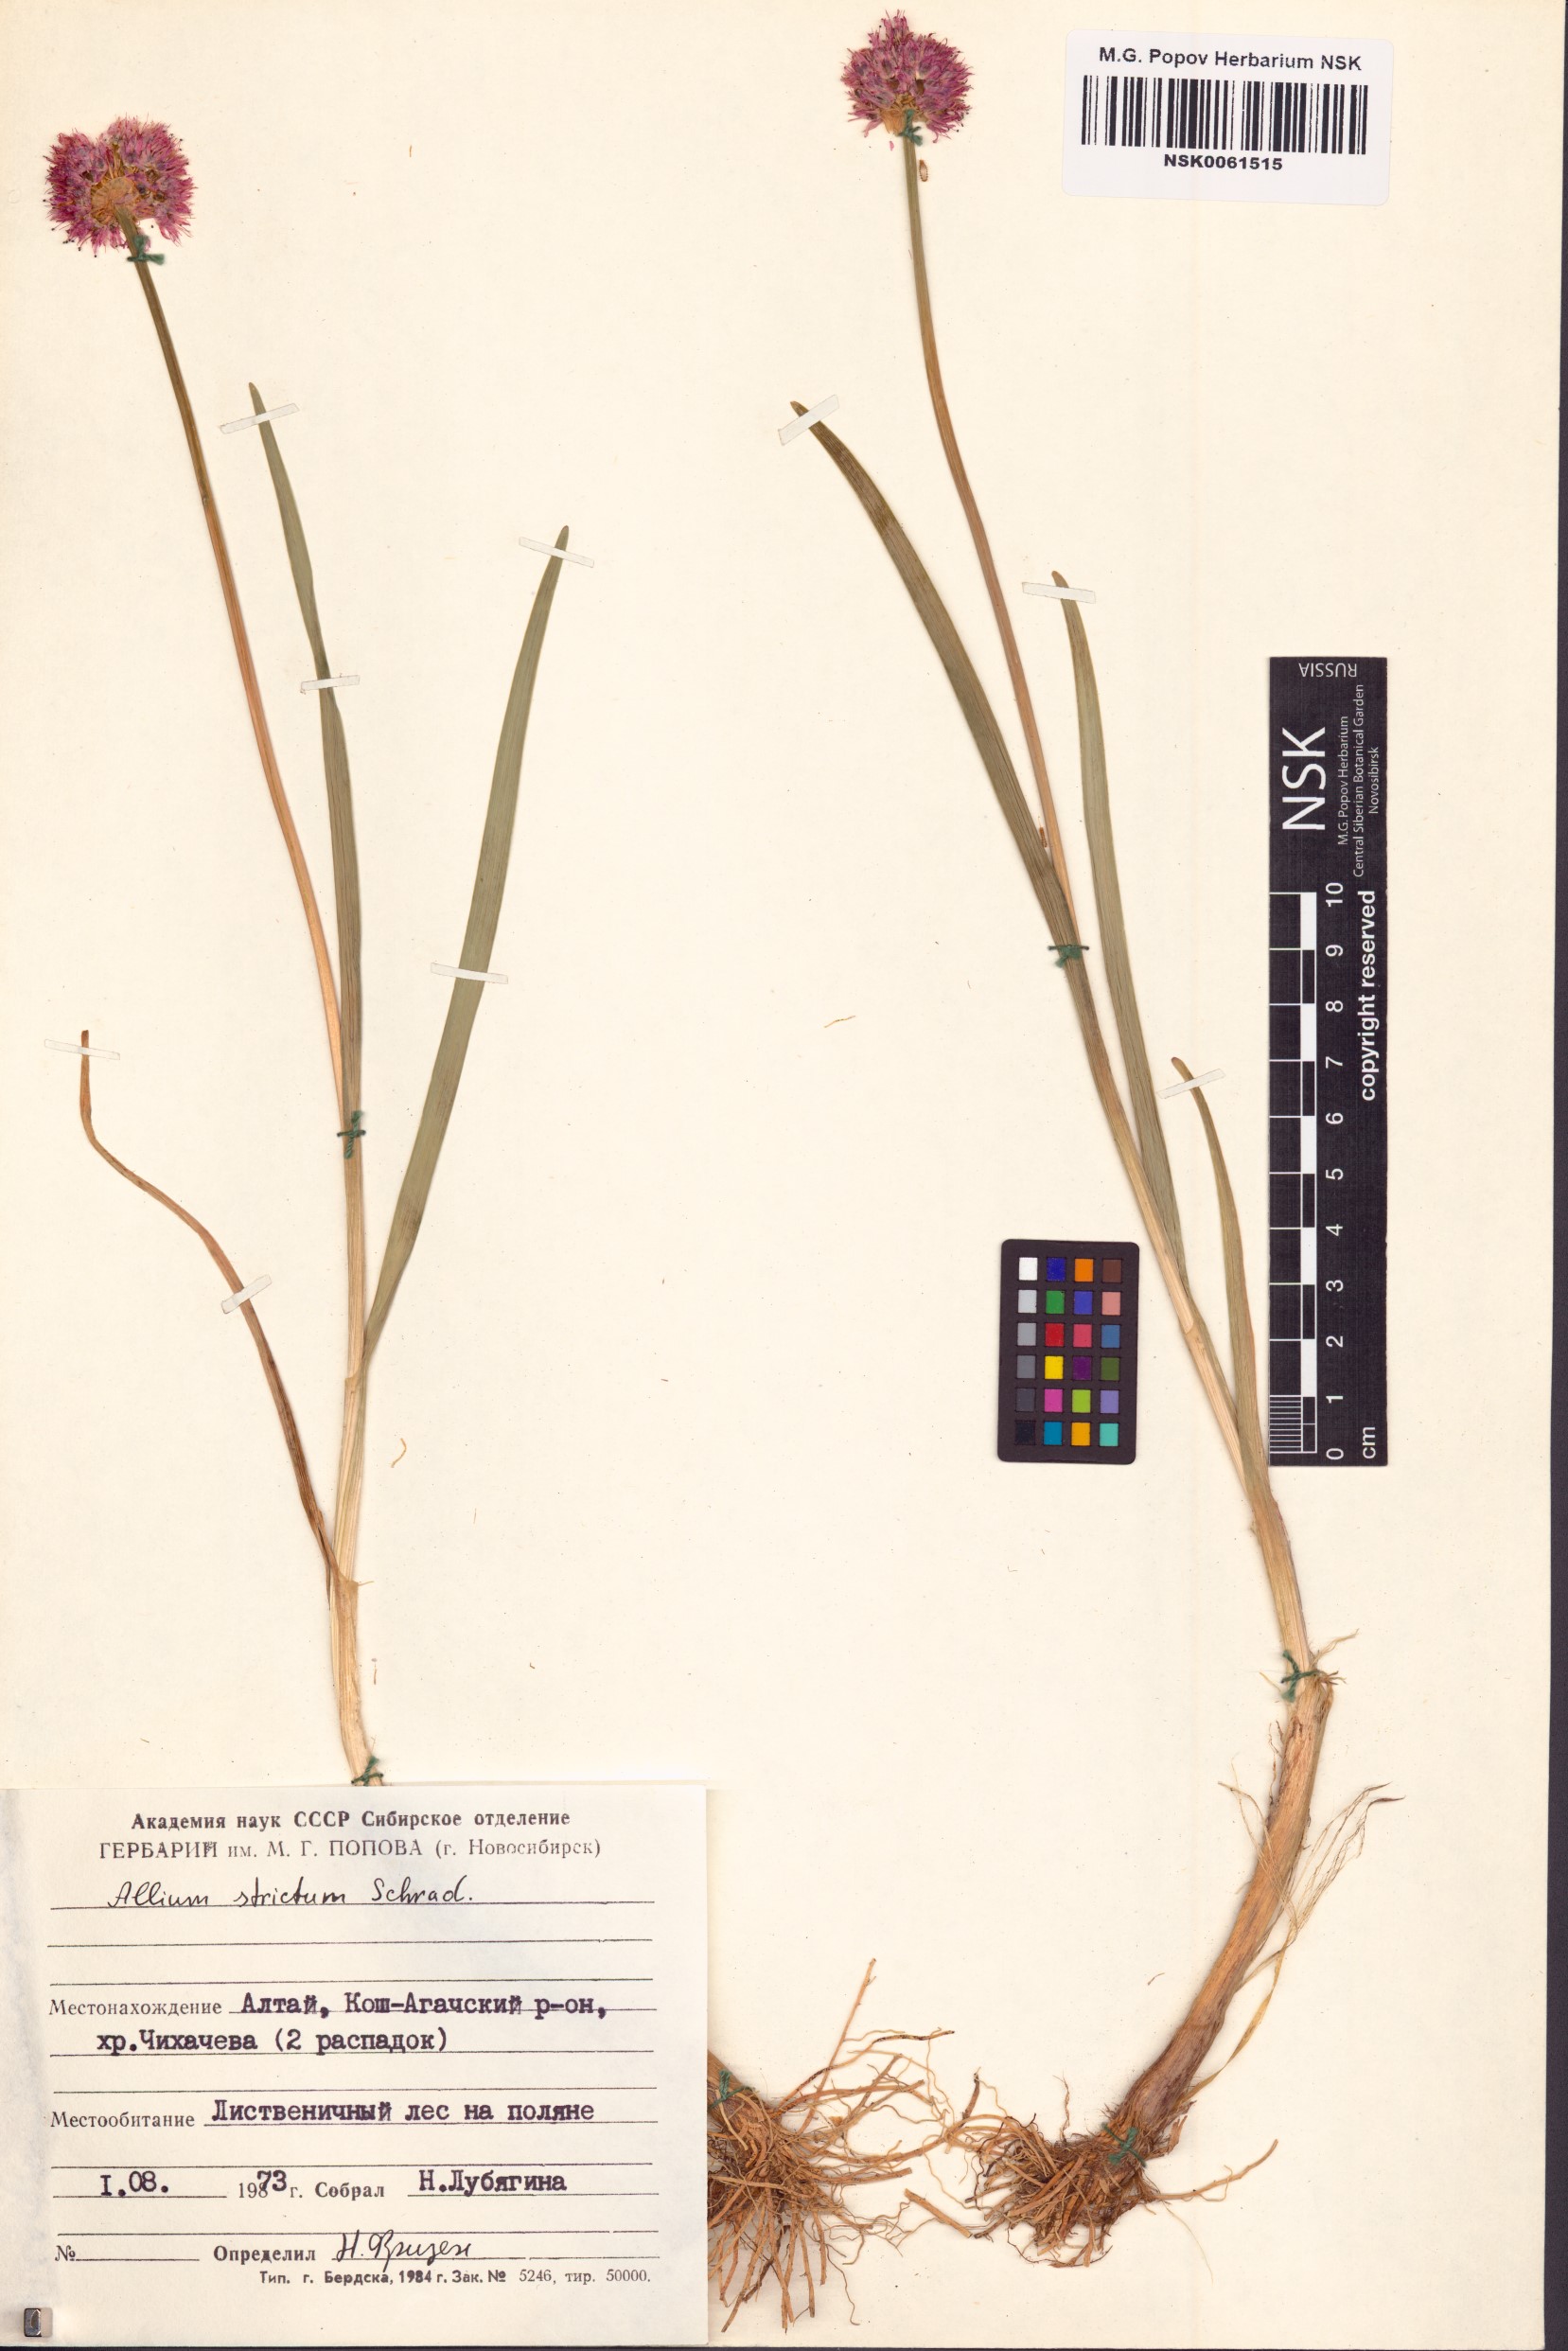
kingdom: Plantae
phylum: Tracheophyta
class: Liliopsida
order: Asparagales
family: Amaryllidaceae
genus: Allium
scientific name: Allium strictum
